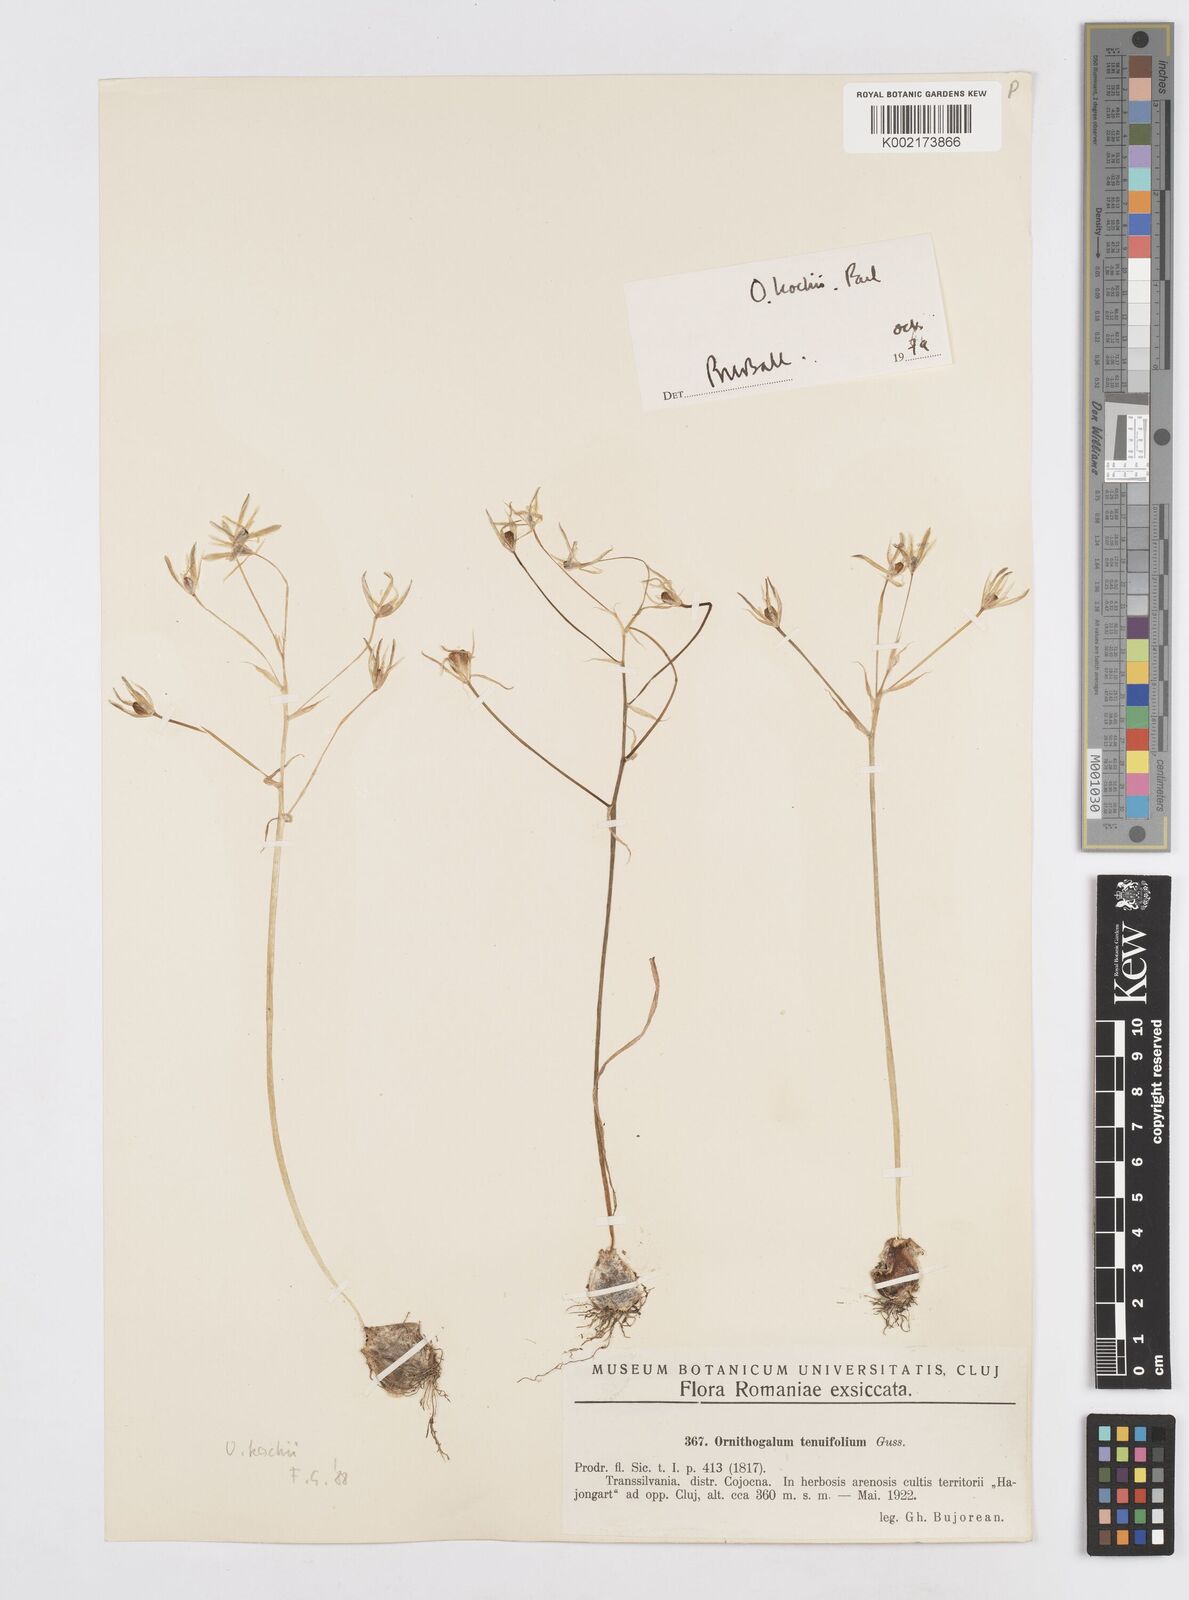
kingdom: Plantae
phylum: Tracheophyta
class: Liliopsida
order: Asparagales
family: Asparagaceae
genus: Ornithogalum
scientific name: Ornithogalum orthophyllum
